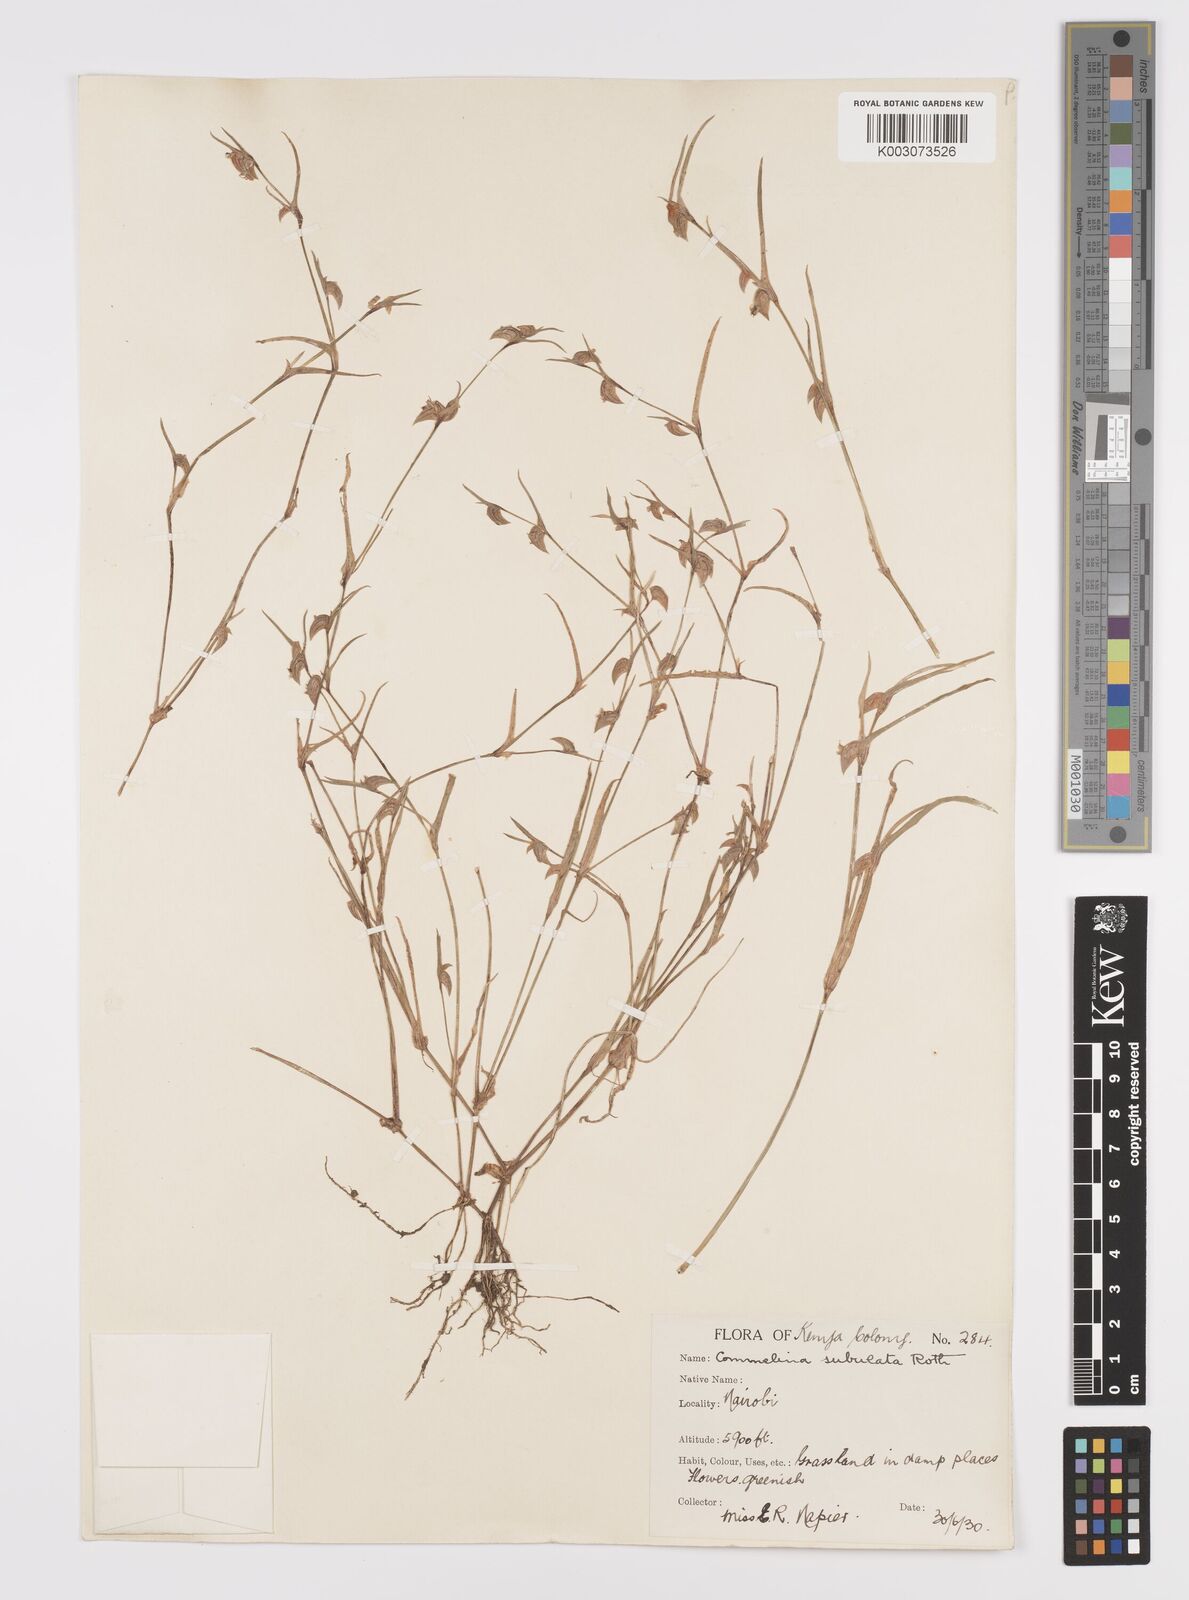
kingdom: Plantae
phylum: Tracheophyta
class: Liliopsida
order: Commelinales
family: Commelinaceae
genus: Commelina
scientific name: Commelina subulata
